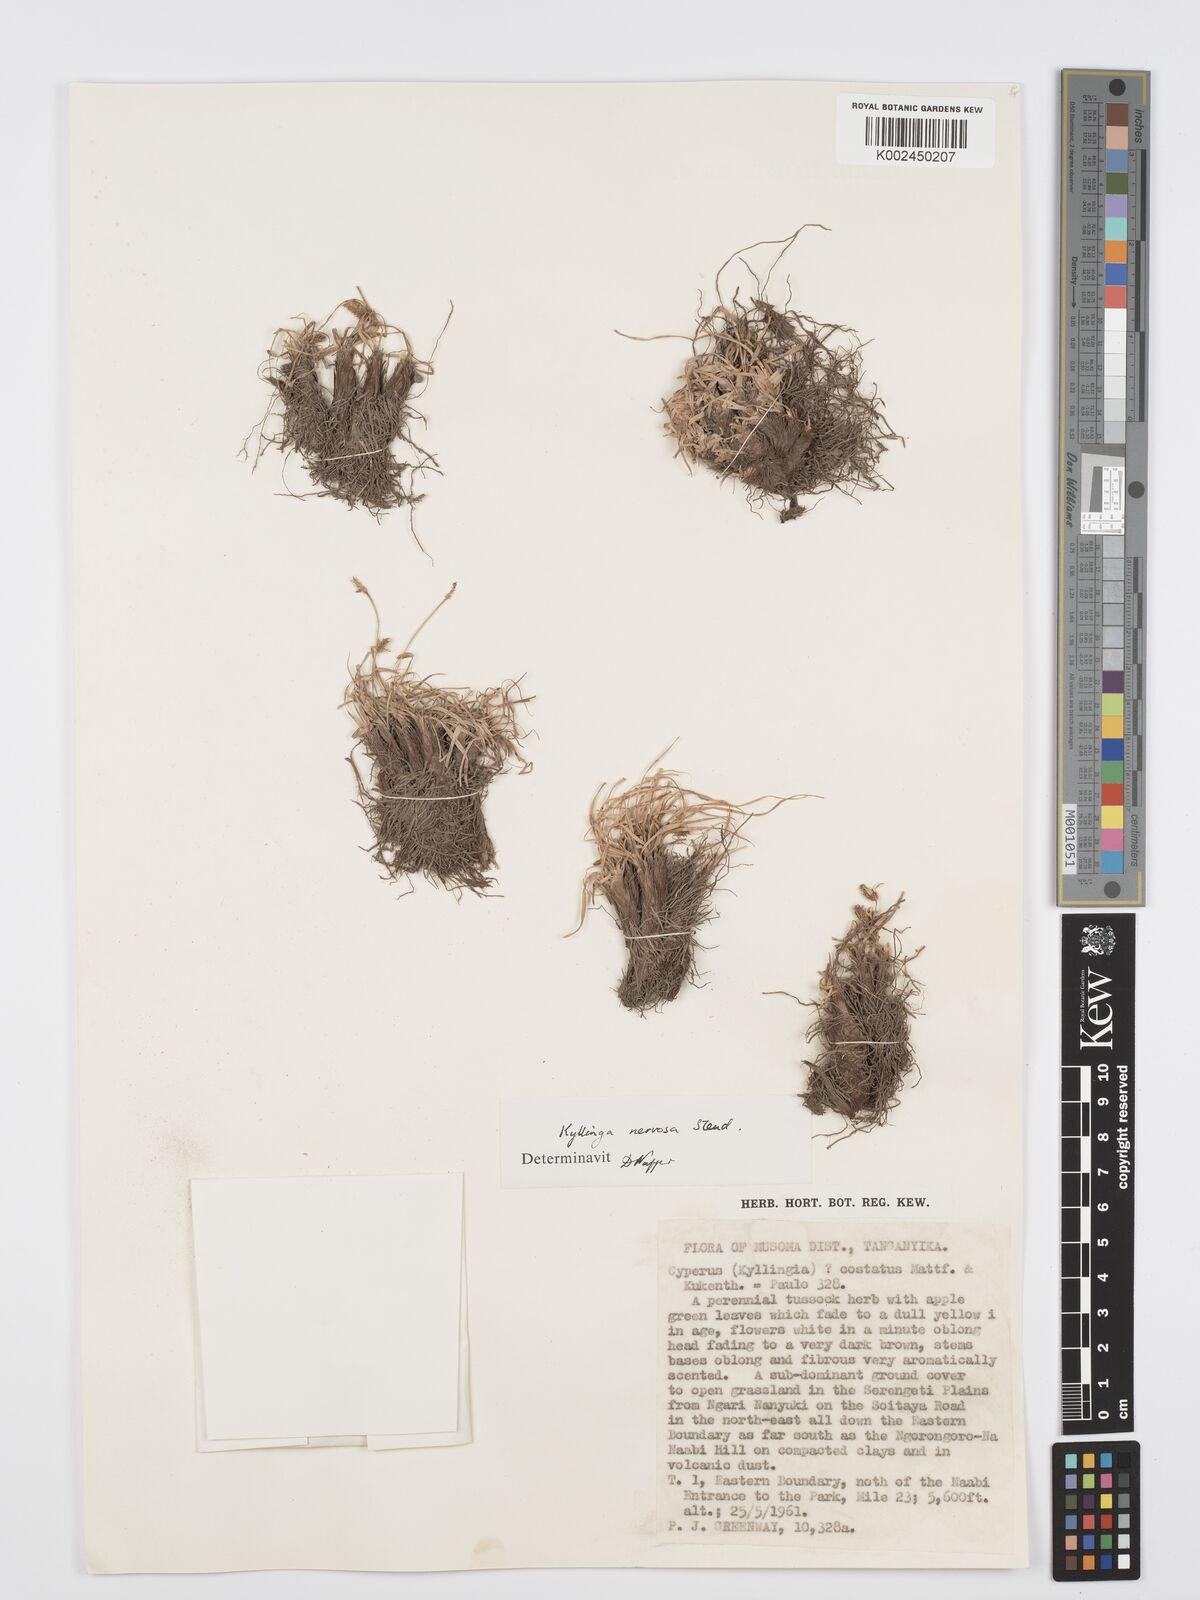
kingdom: Plantae
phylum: Tracheophyta
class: Liliopsida
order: Poales
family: Cyperaceae
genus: Cyperus
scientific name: Cyperus
